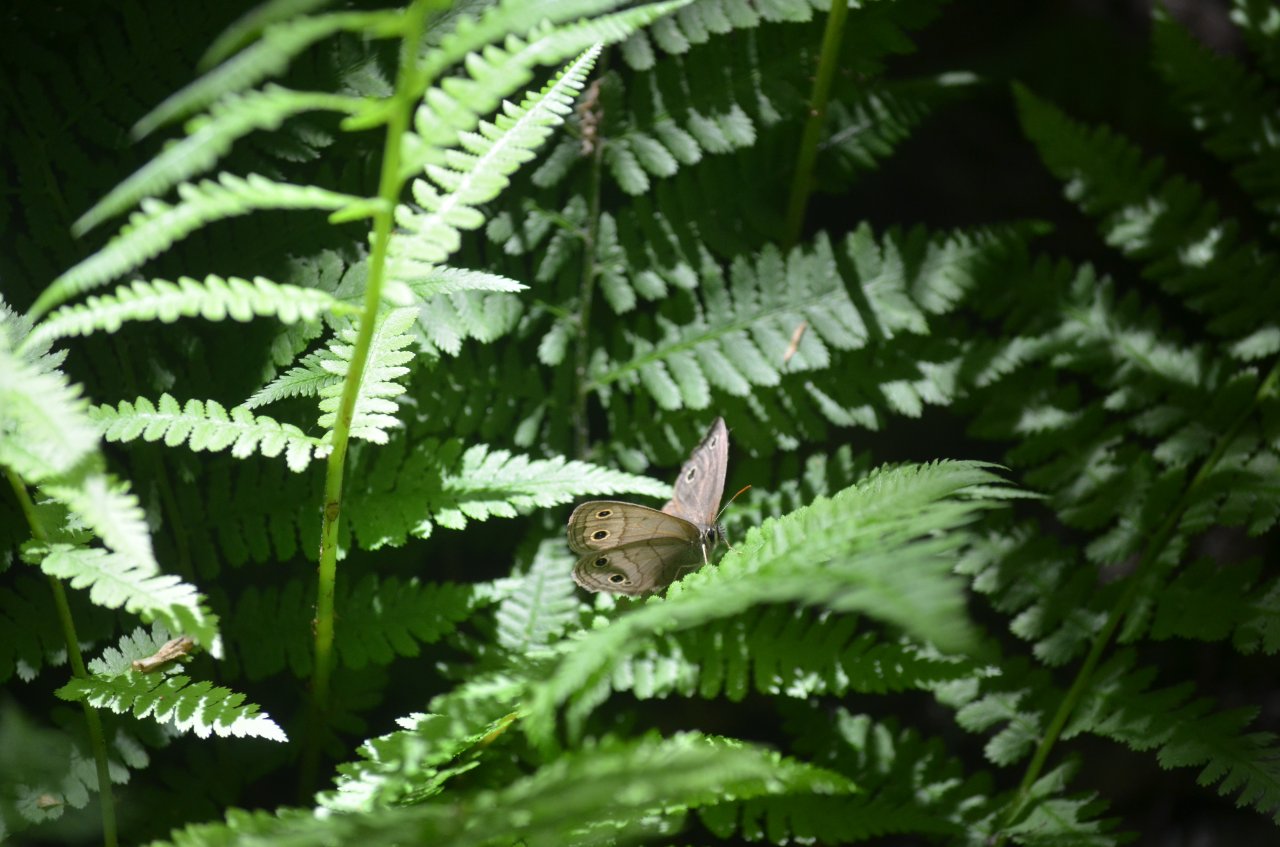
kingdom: Animalia
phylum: Arthropoda
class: Insecta
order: Lepidoptera
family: Nymphalidae
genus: Euptychia
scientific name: Euptychia cymela
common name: Little Wood Satyr
